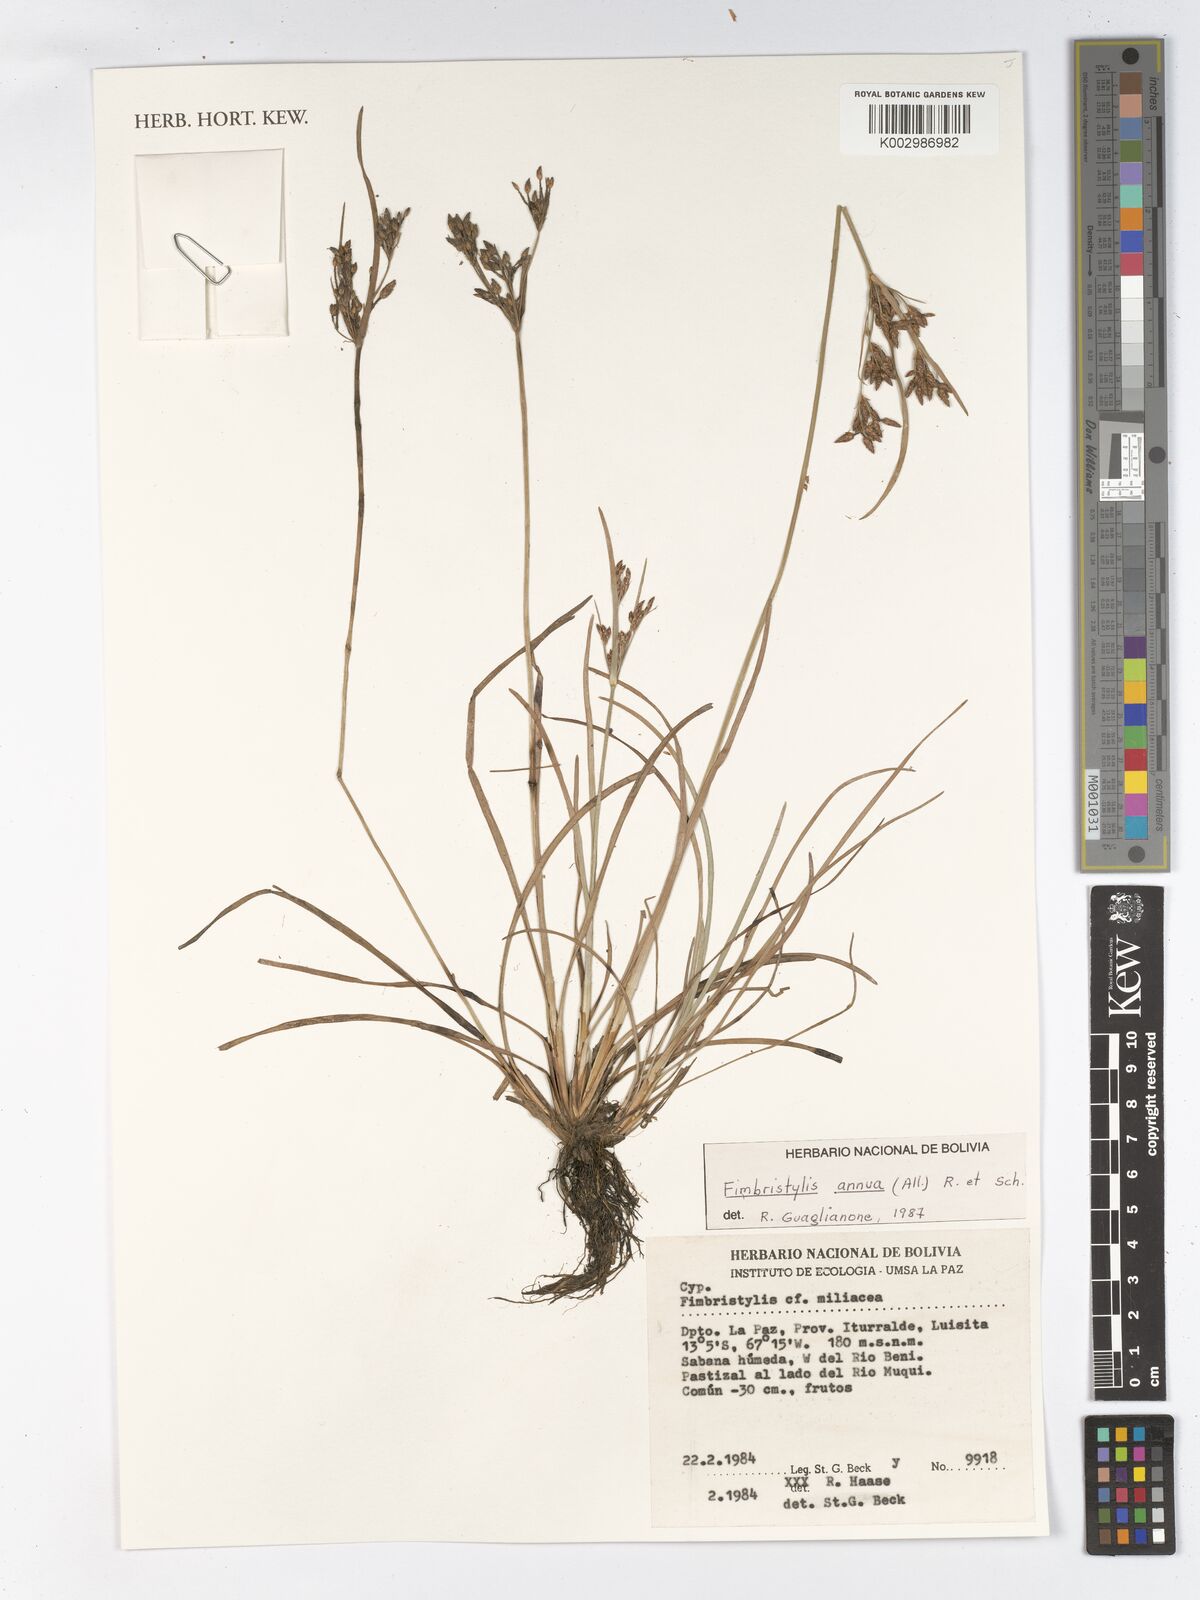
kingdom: Plantae
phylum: Tracheophyta
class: Liliopsida
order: Poales
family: Cyperaceae
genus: Fimbristylis
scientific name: Fimbristylis dichotoma
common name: Forked fimbry
